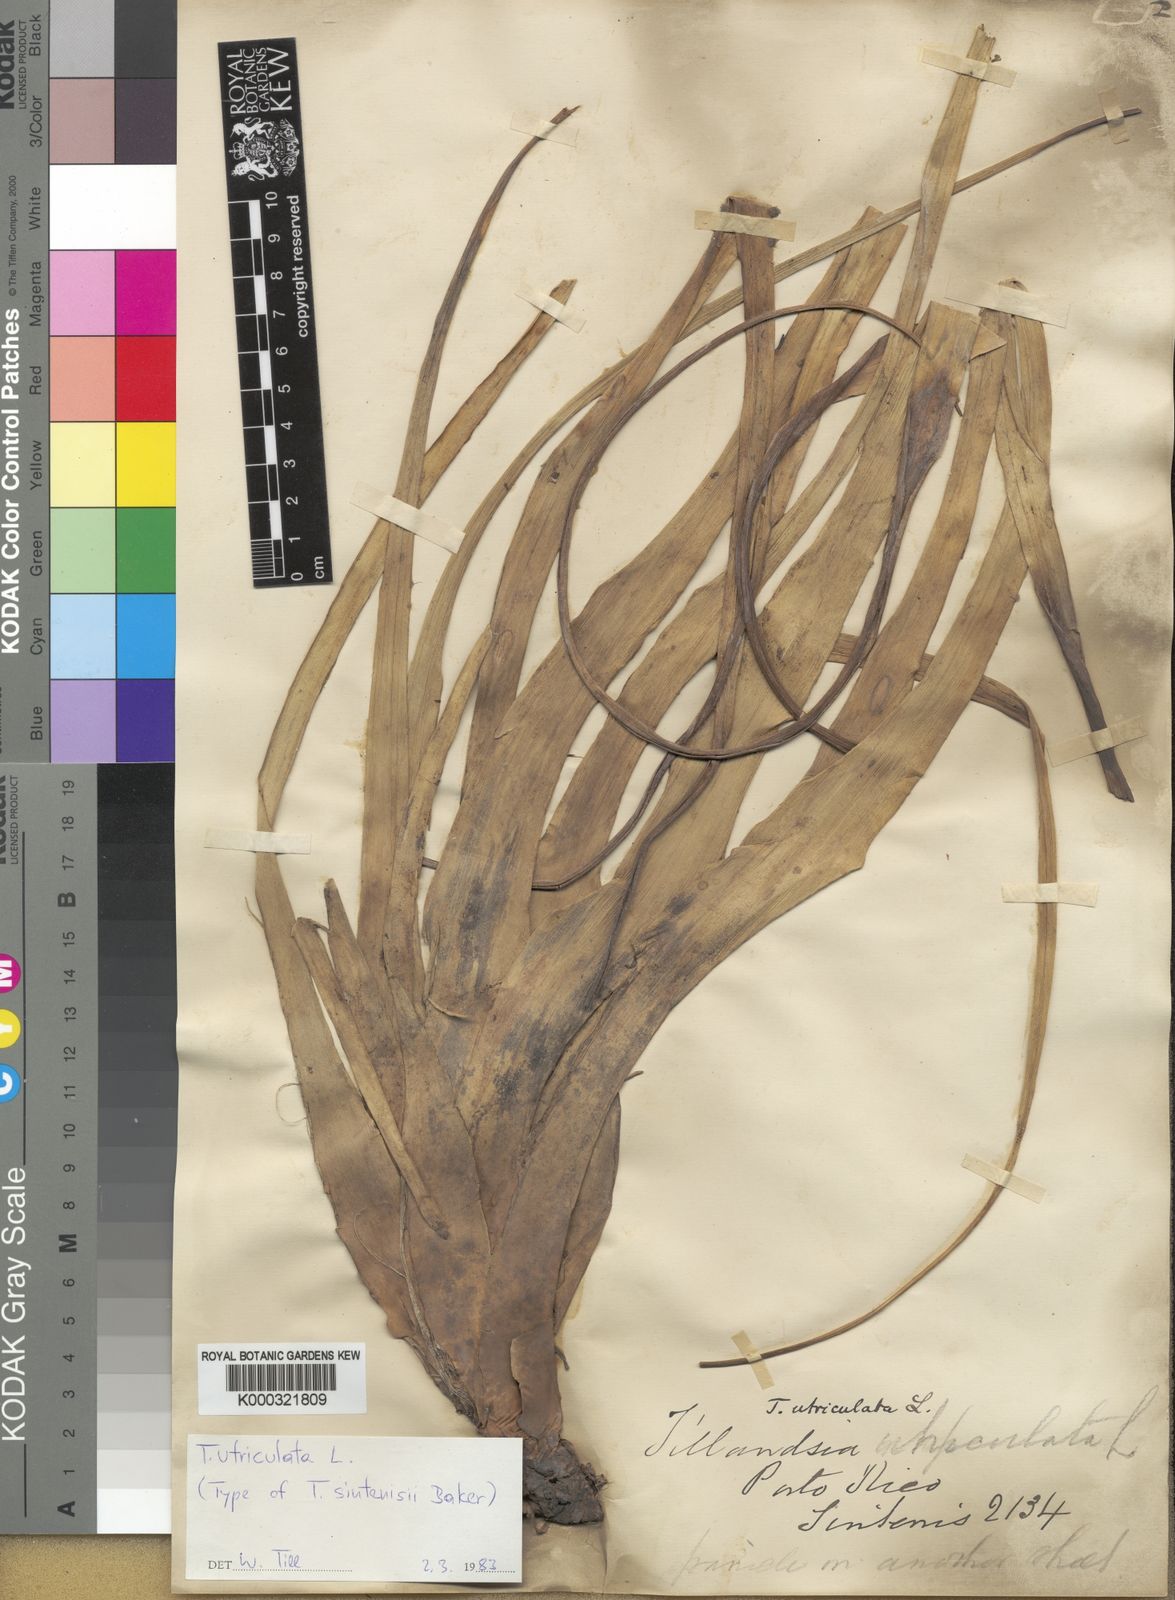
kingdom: Plantae
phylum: Tracheophyta
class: Liliopsida
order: Poales
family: Bromeliaceae
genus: Tillandsia
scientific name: Tillandsia utriculata
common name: Wild pine
